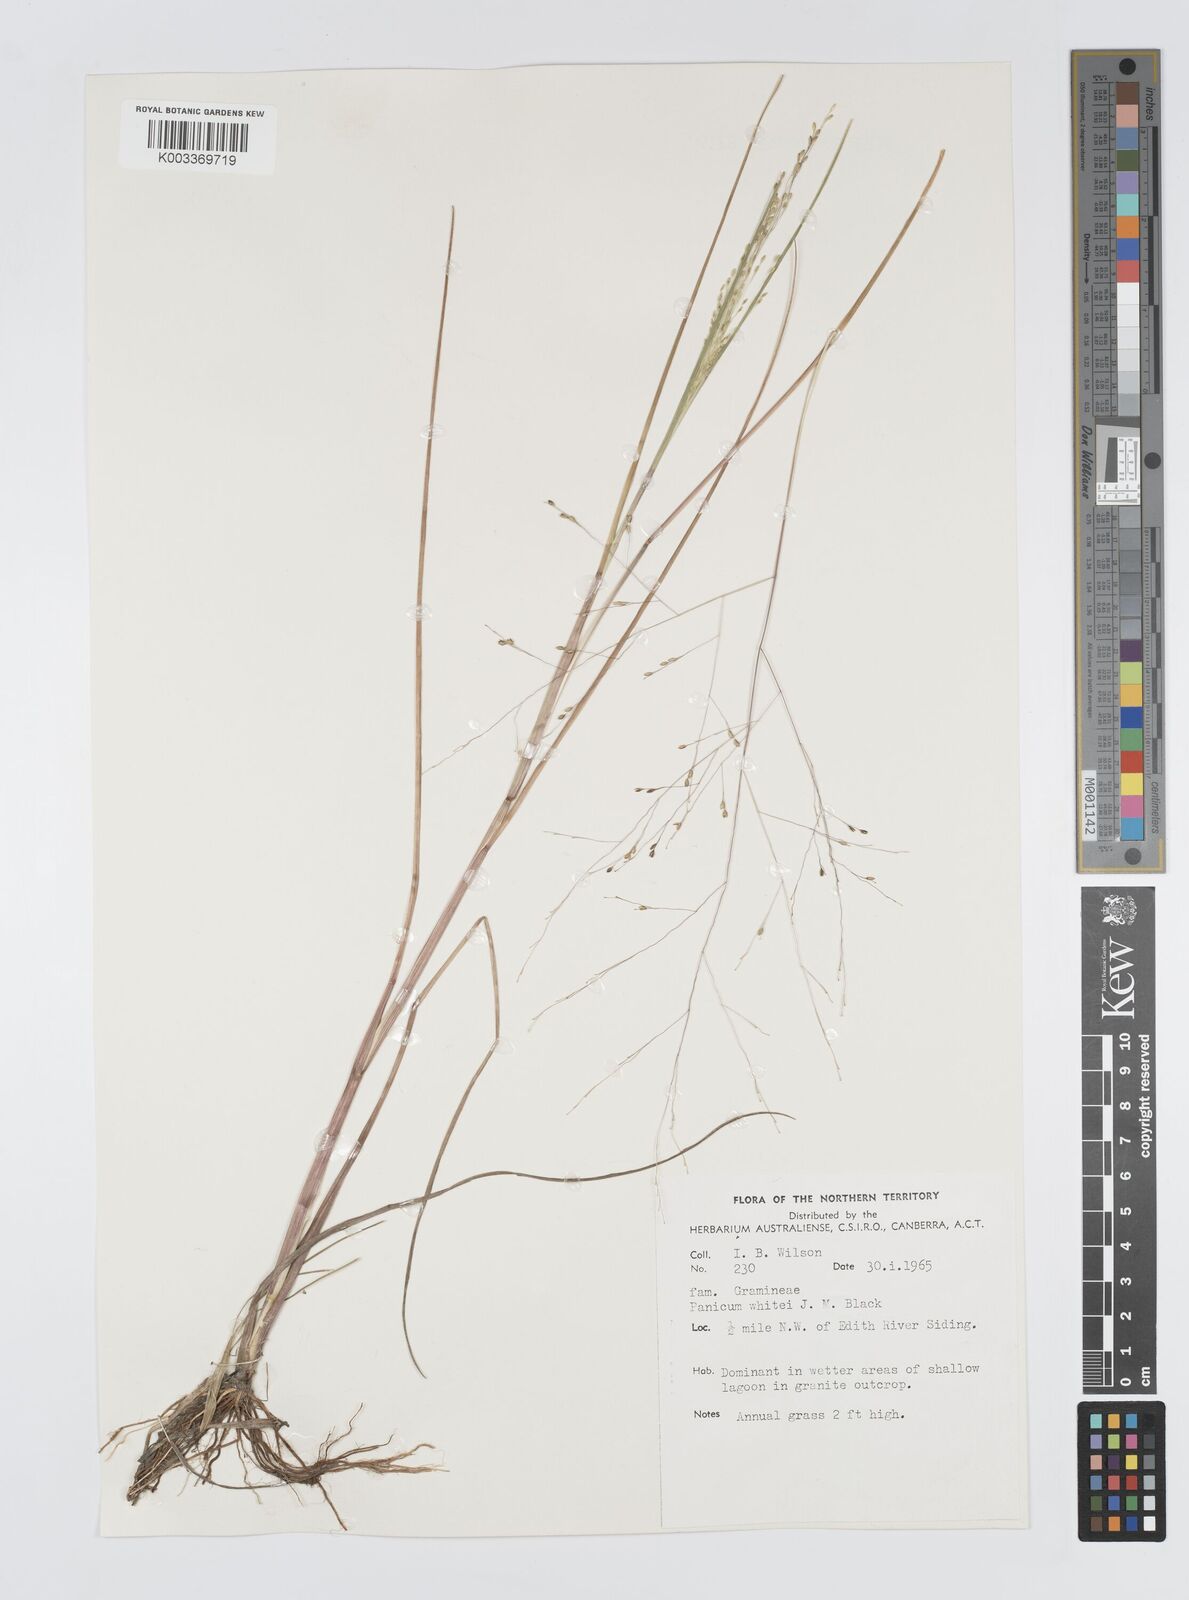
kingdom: Plantae
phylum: Tracheophyta
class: Liliopsida
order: Poales
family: Poaceae
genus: Panicum
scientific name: Panicum laevinode
